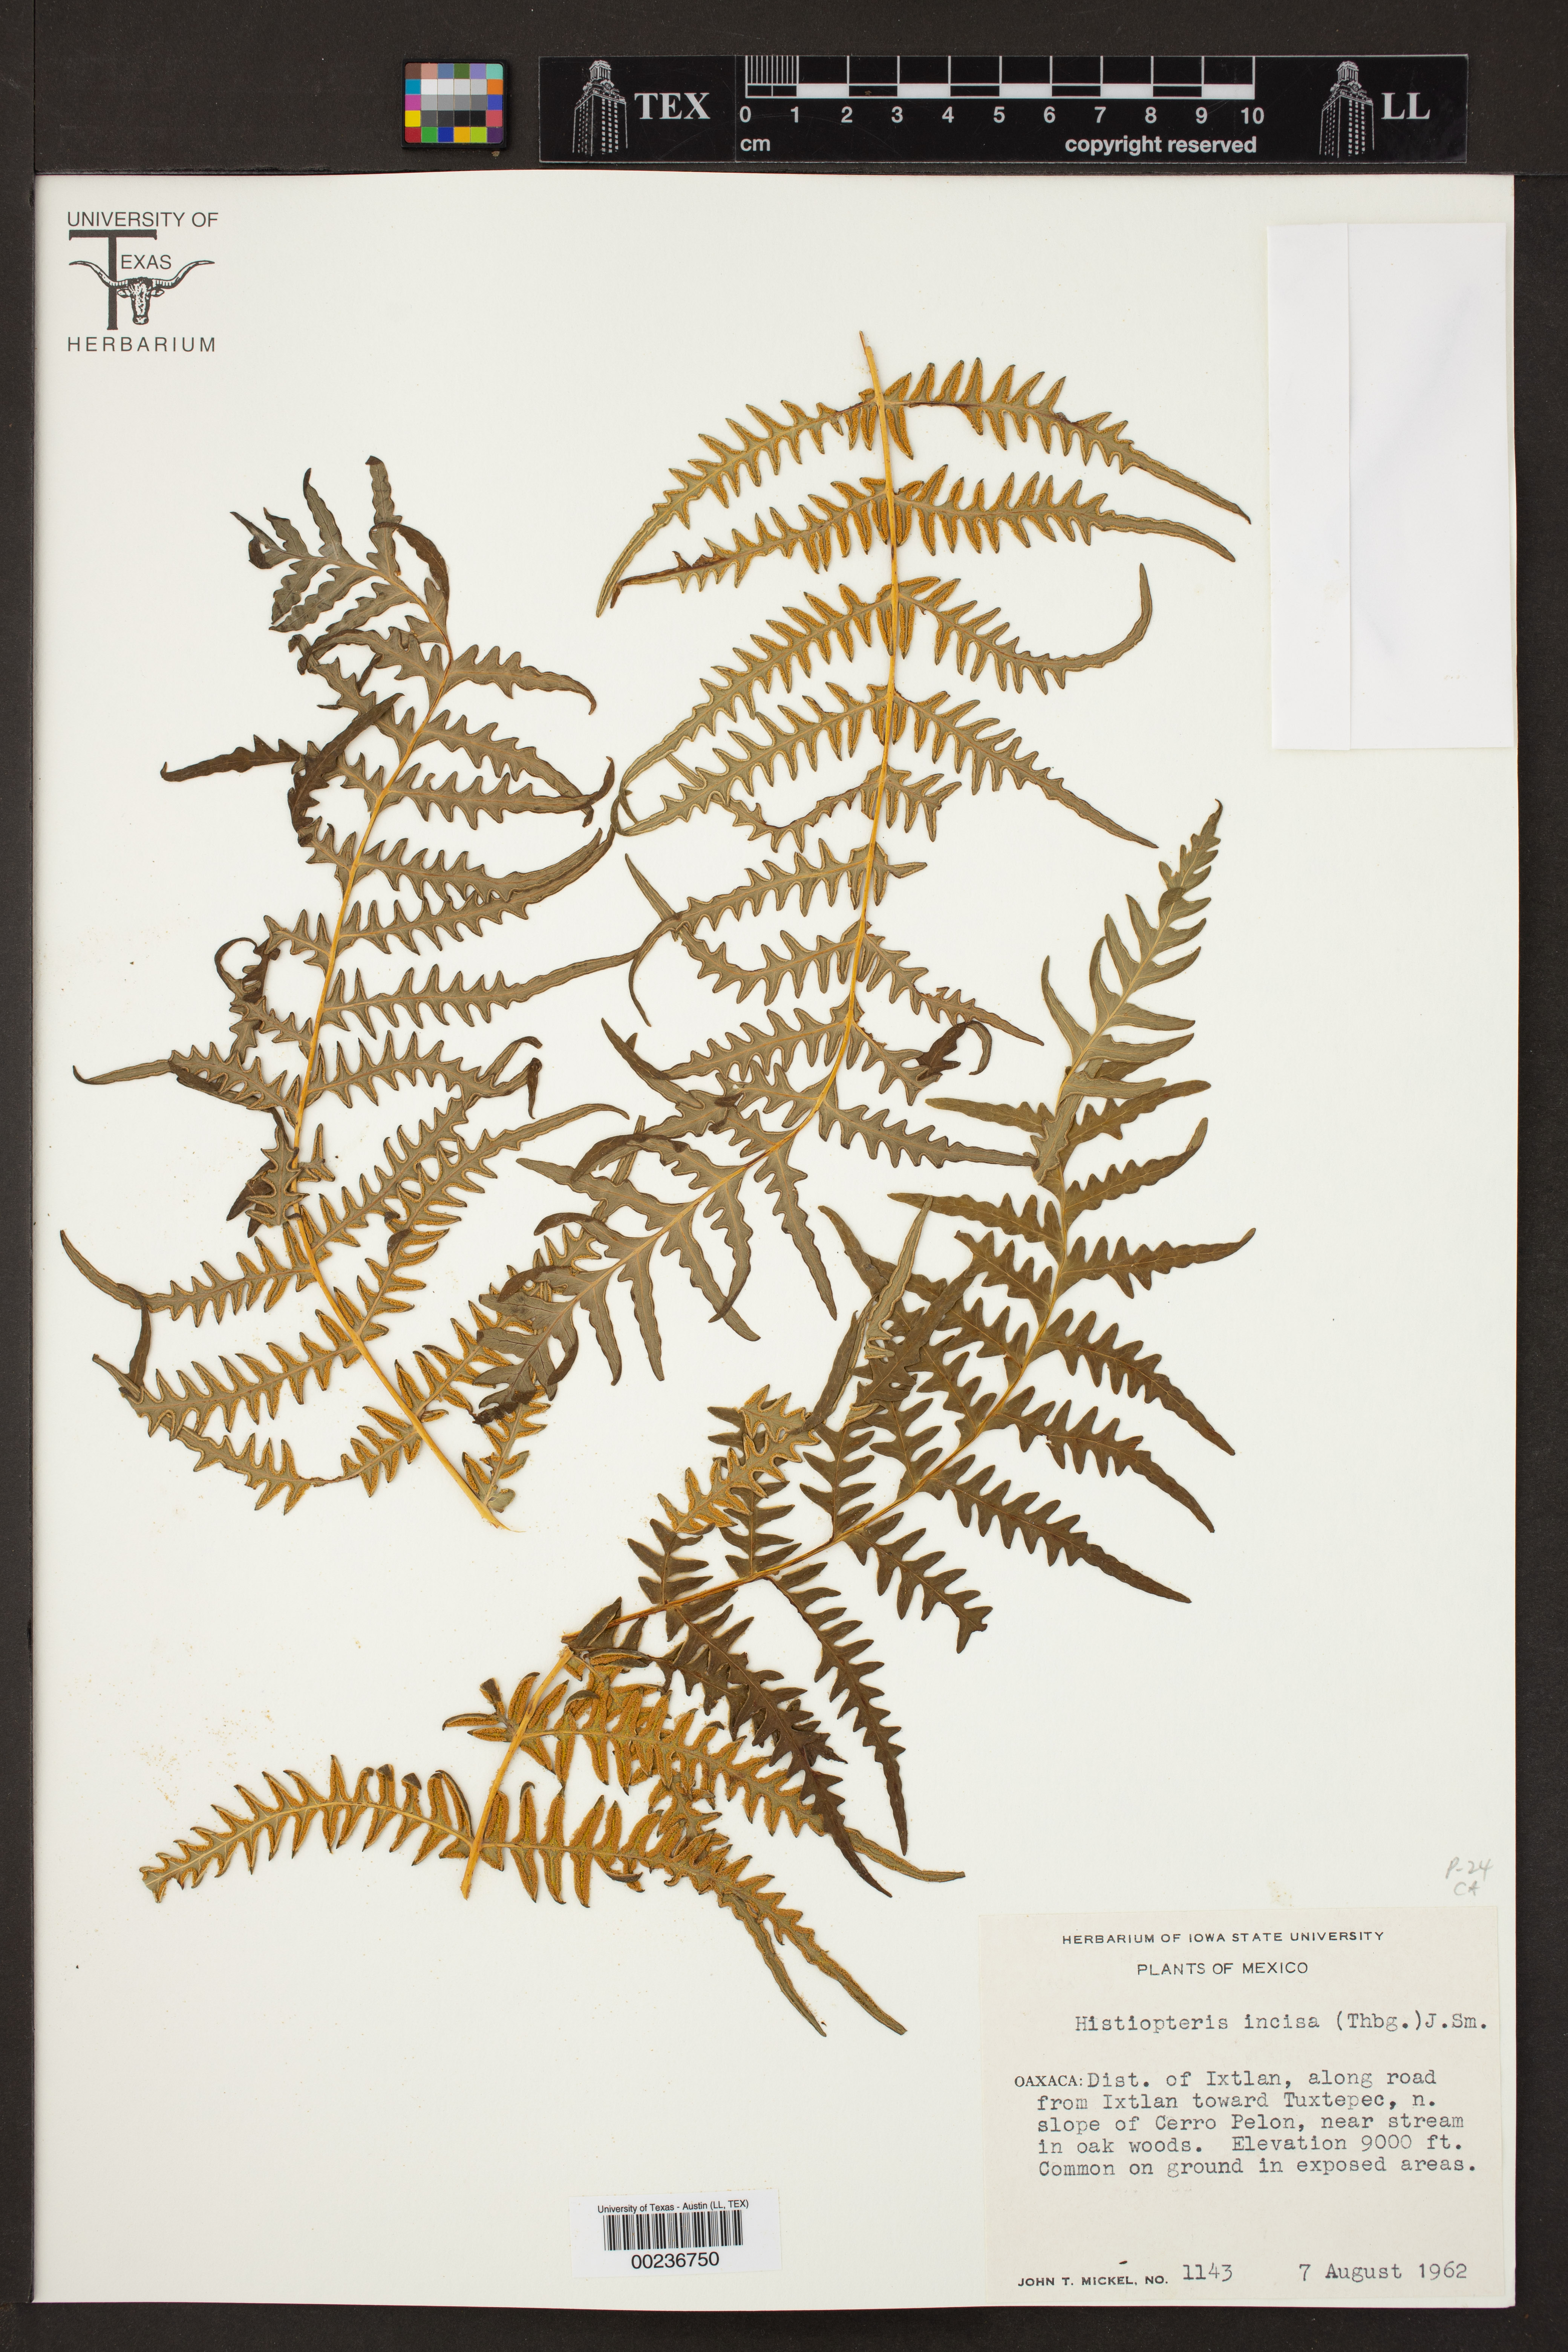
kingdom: Plantae
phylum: Tracheophyta
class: Polypodiopsida
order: Polypodiales
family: Dennstaedtiaceae
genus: Histiopteris
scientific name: Histiopteris incisa
